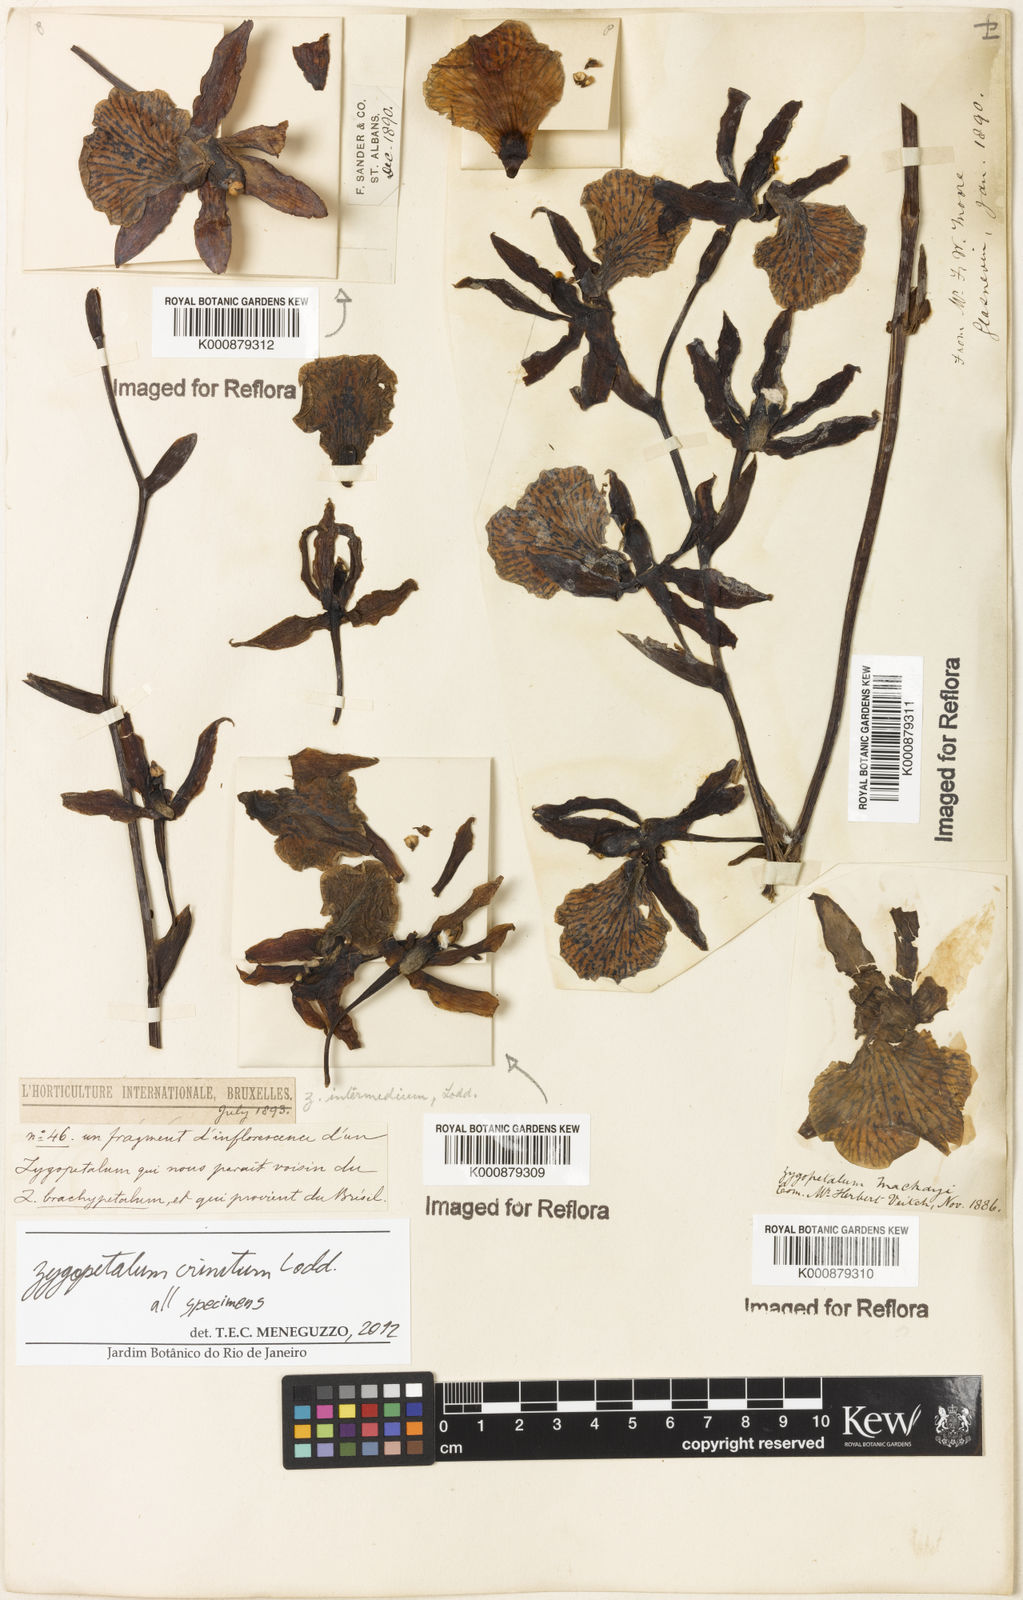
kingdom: Plantae
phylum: Tracheophyta
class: Liliopsida
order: Asparagales
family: Orchidaceae
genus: Zygopetalum
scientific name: Zygopetalum crinitum
